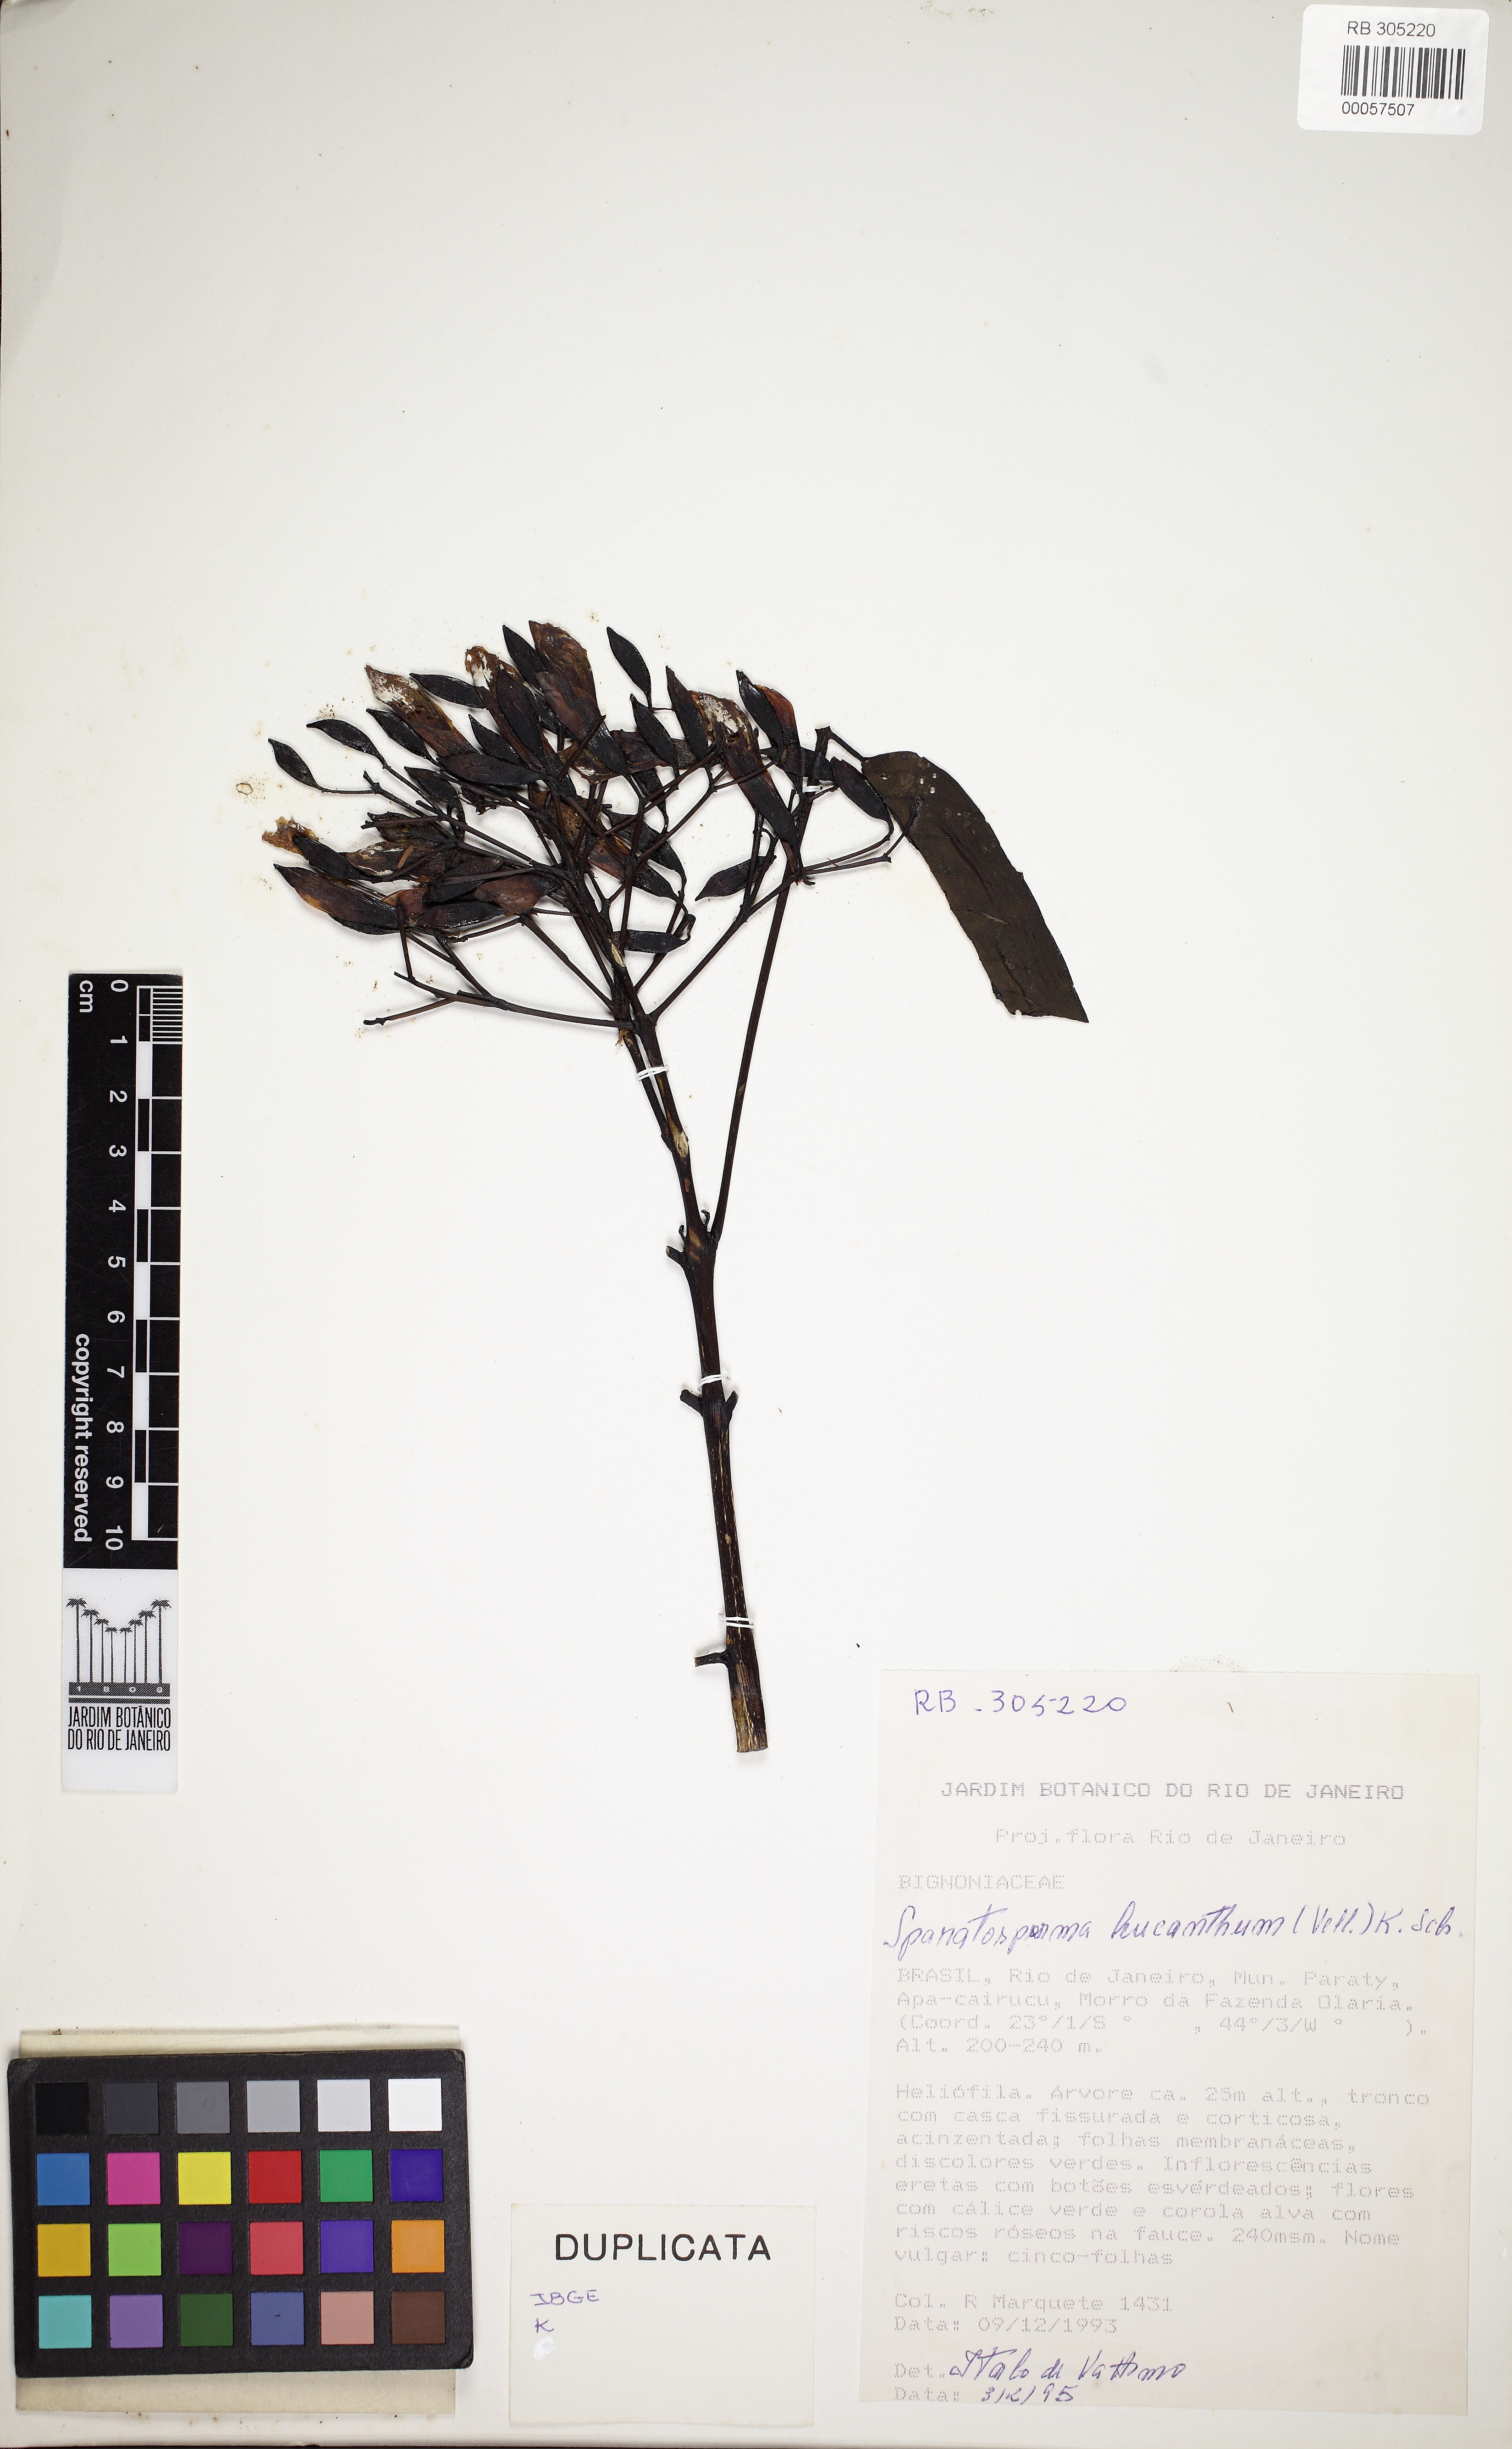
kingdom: Plantae
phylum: Tracheophyta
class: Magnoliopsida
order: Lamiales
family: Bignoniaceae
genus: Sparattosperma
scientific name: Sparattosperma leucanthum
